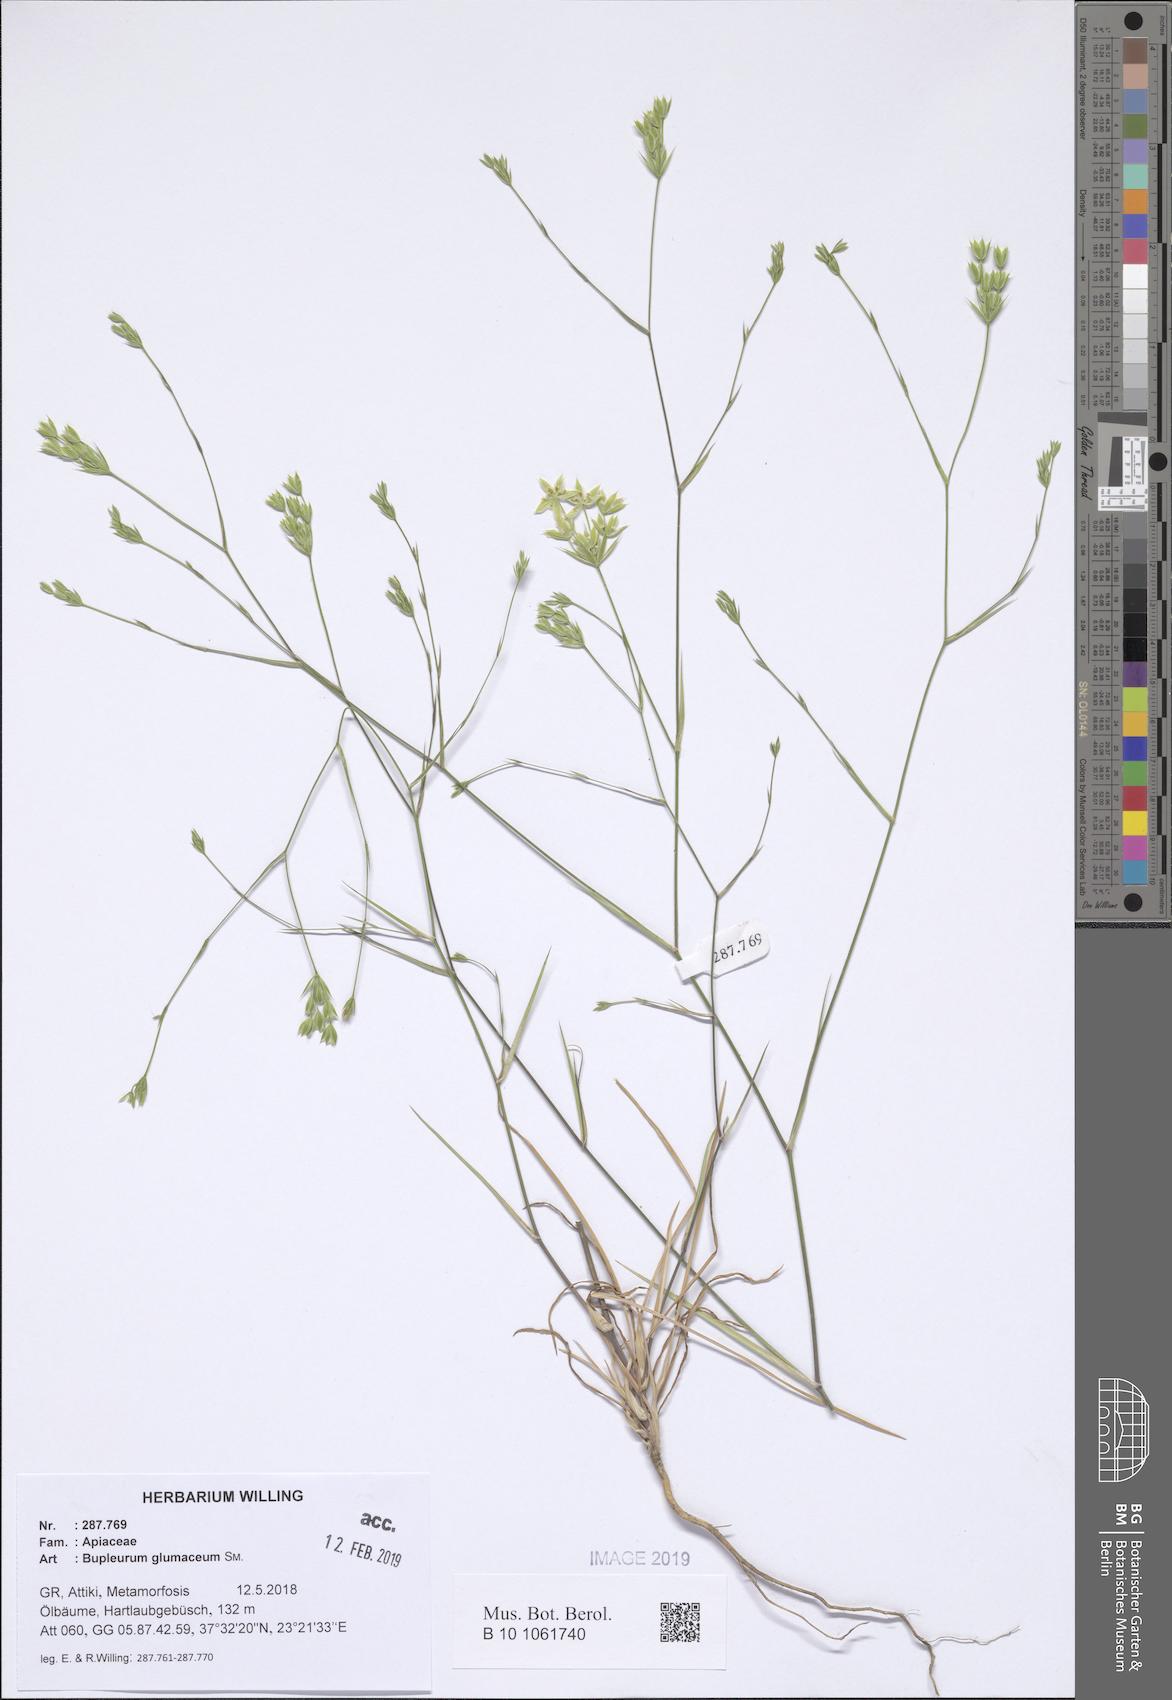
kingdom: Plantae
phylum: Tracheophyta
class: Magnoliopsida
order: Apiales
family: Apiaceae
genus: Bupleurum
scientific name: Bupleurum glumaceum
